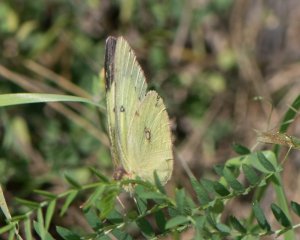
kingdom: Animalia
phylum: Arthropoda
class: Insecta
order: Lepidoptera
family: Pieridae
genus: Colias
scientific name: Colias philodice
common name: Clouded Sulphur
